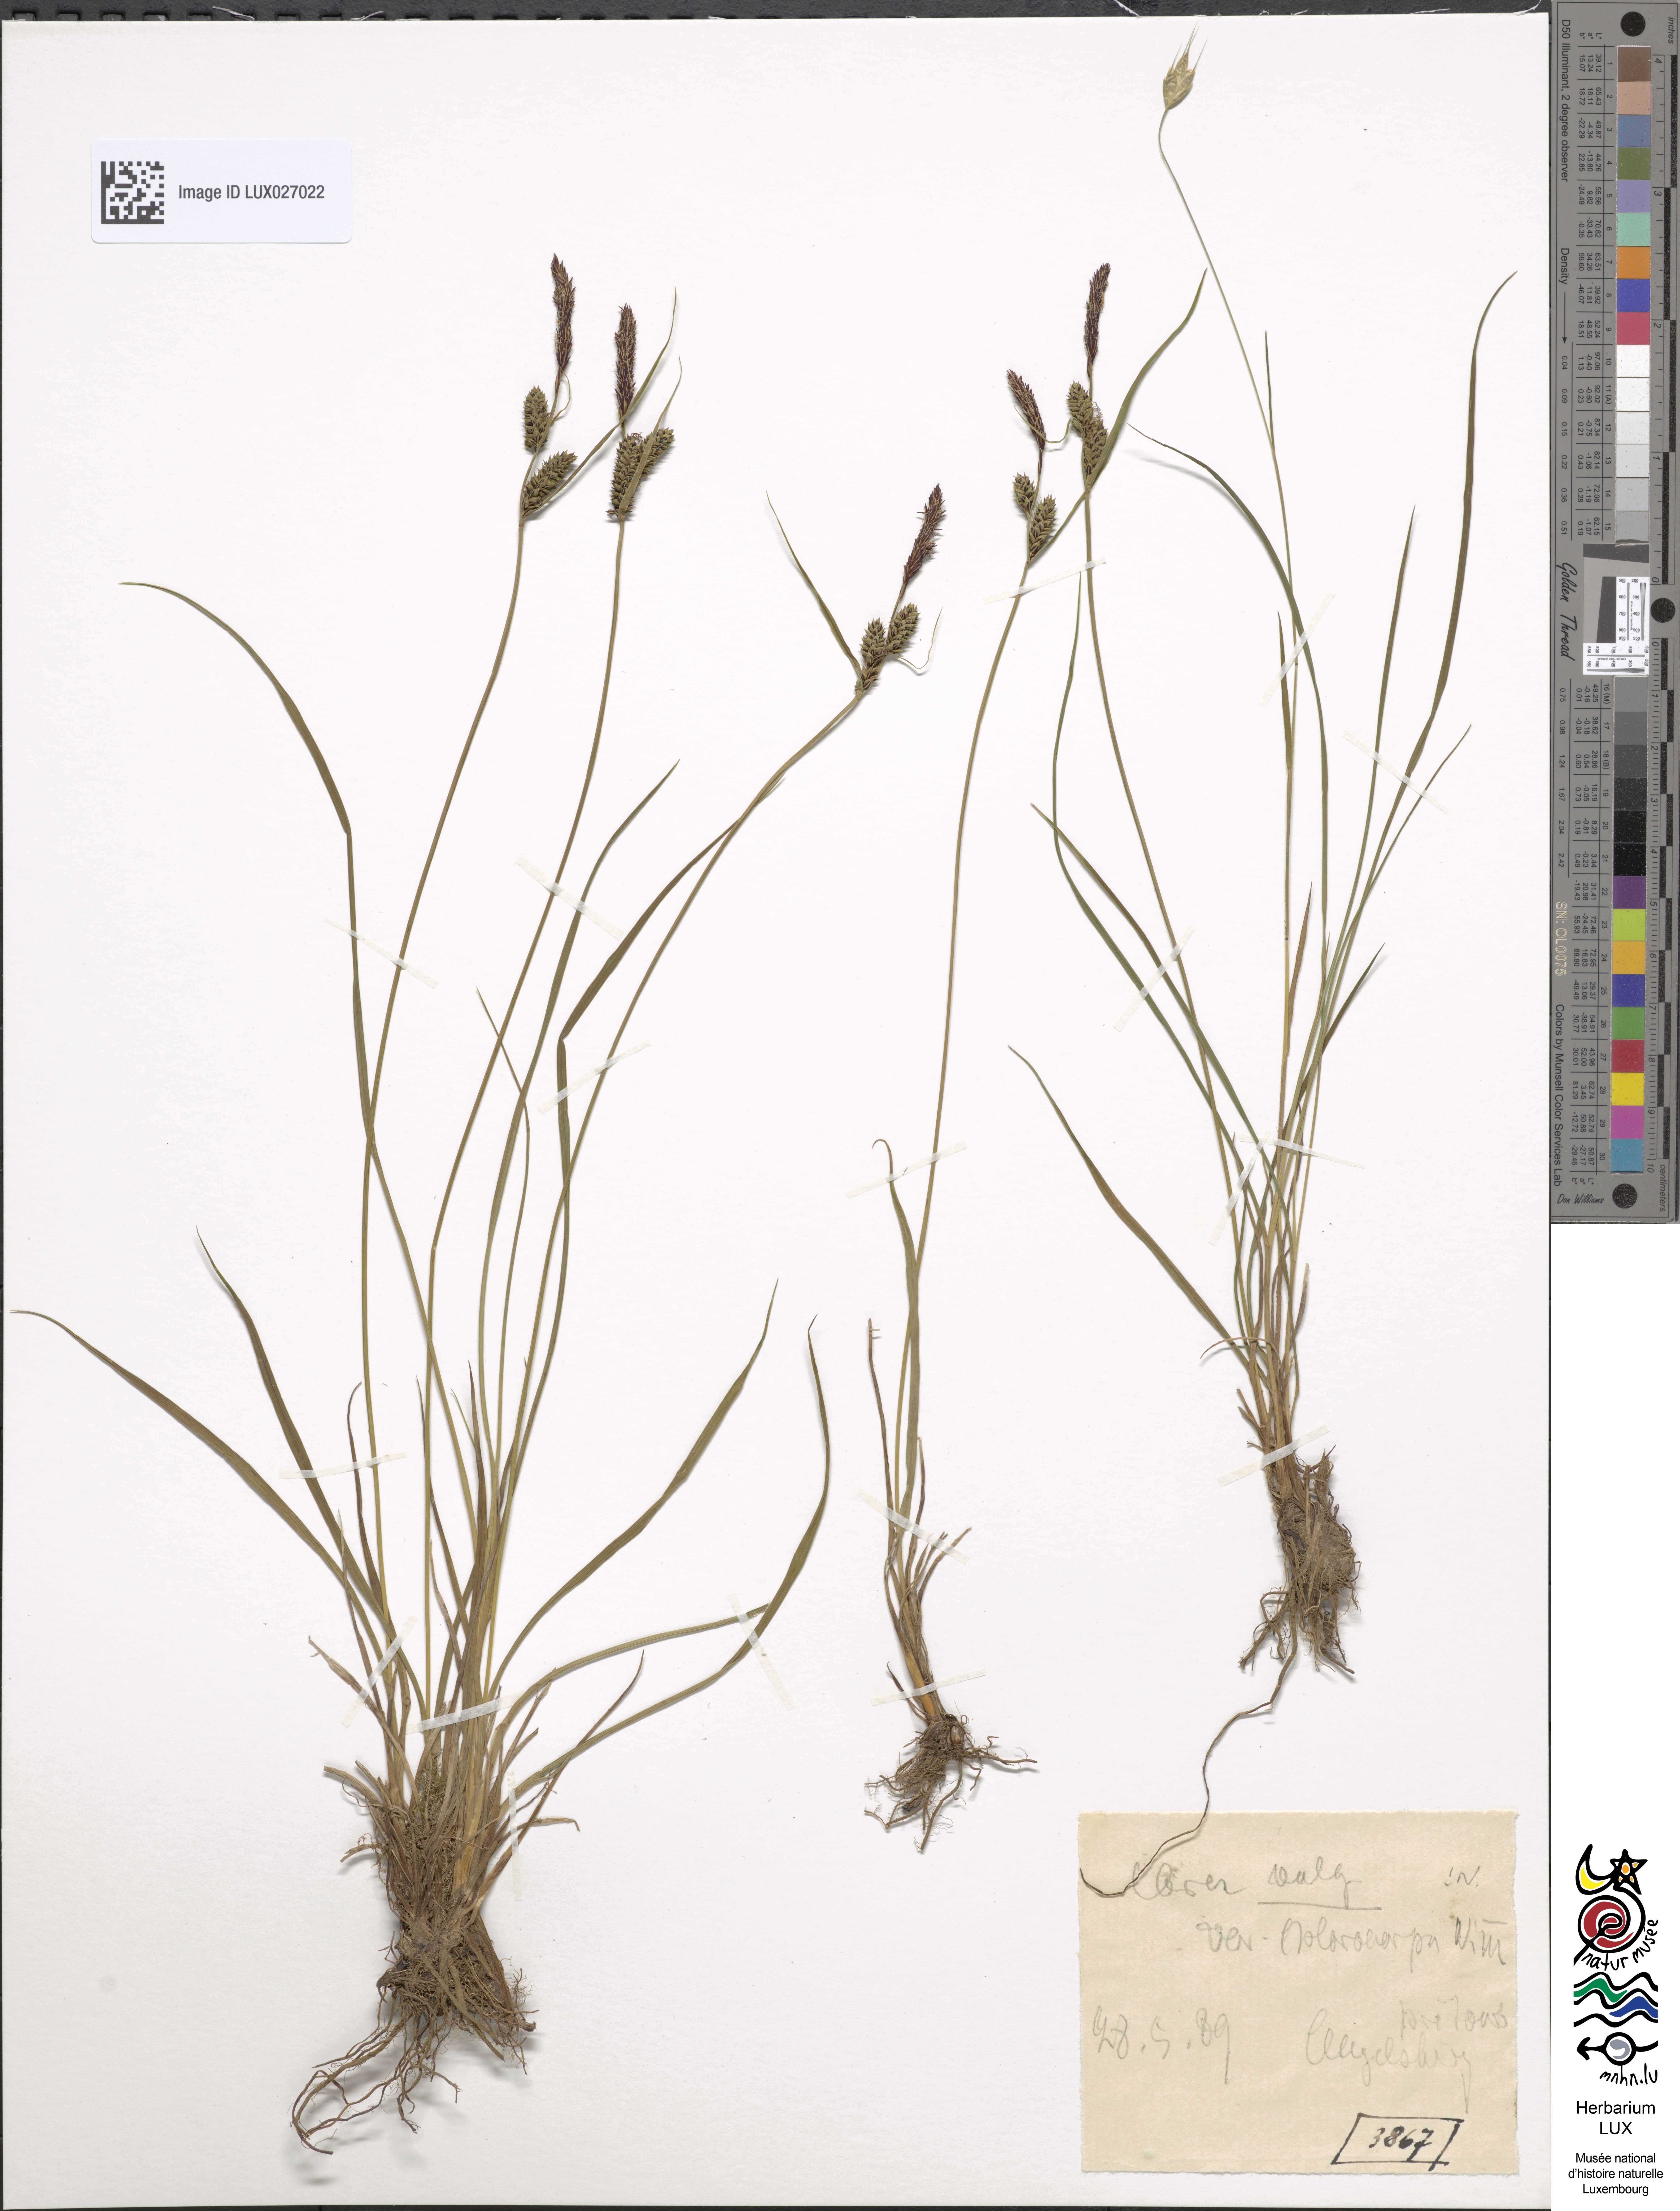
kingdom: Plantae
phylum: Tracheophyta
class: Liliopsida
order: Poales
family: Cyperaceae
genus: Carex
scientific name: Carex nigra
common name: Common sedge
